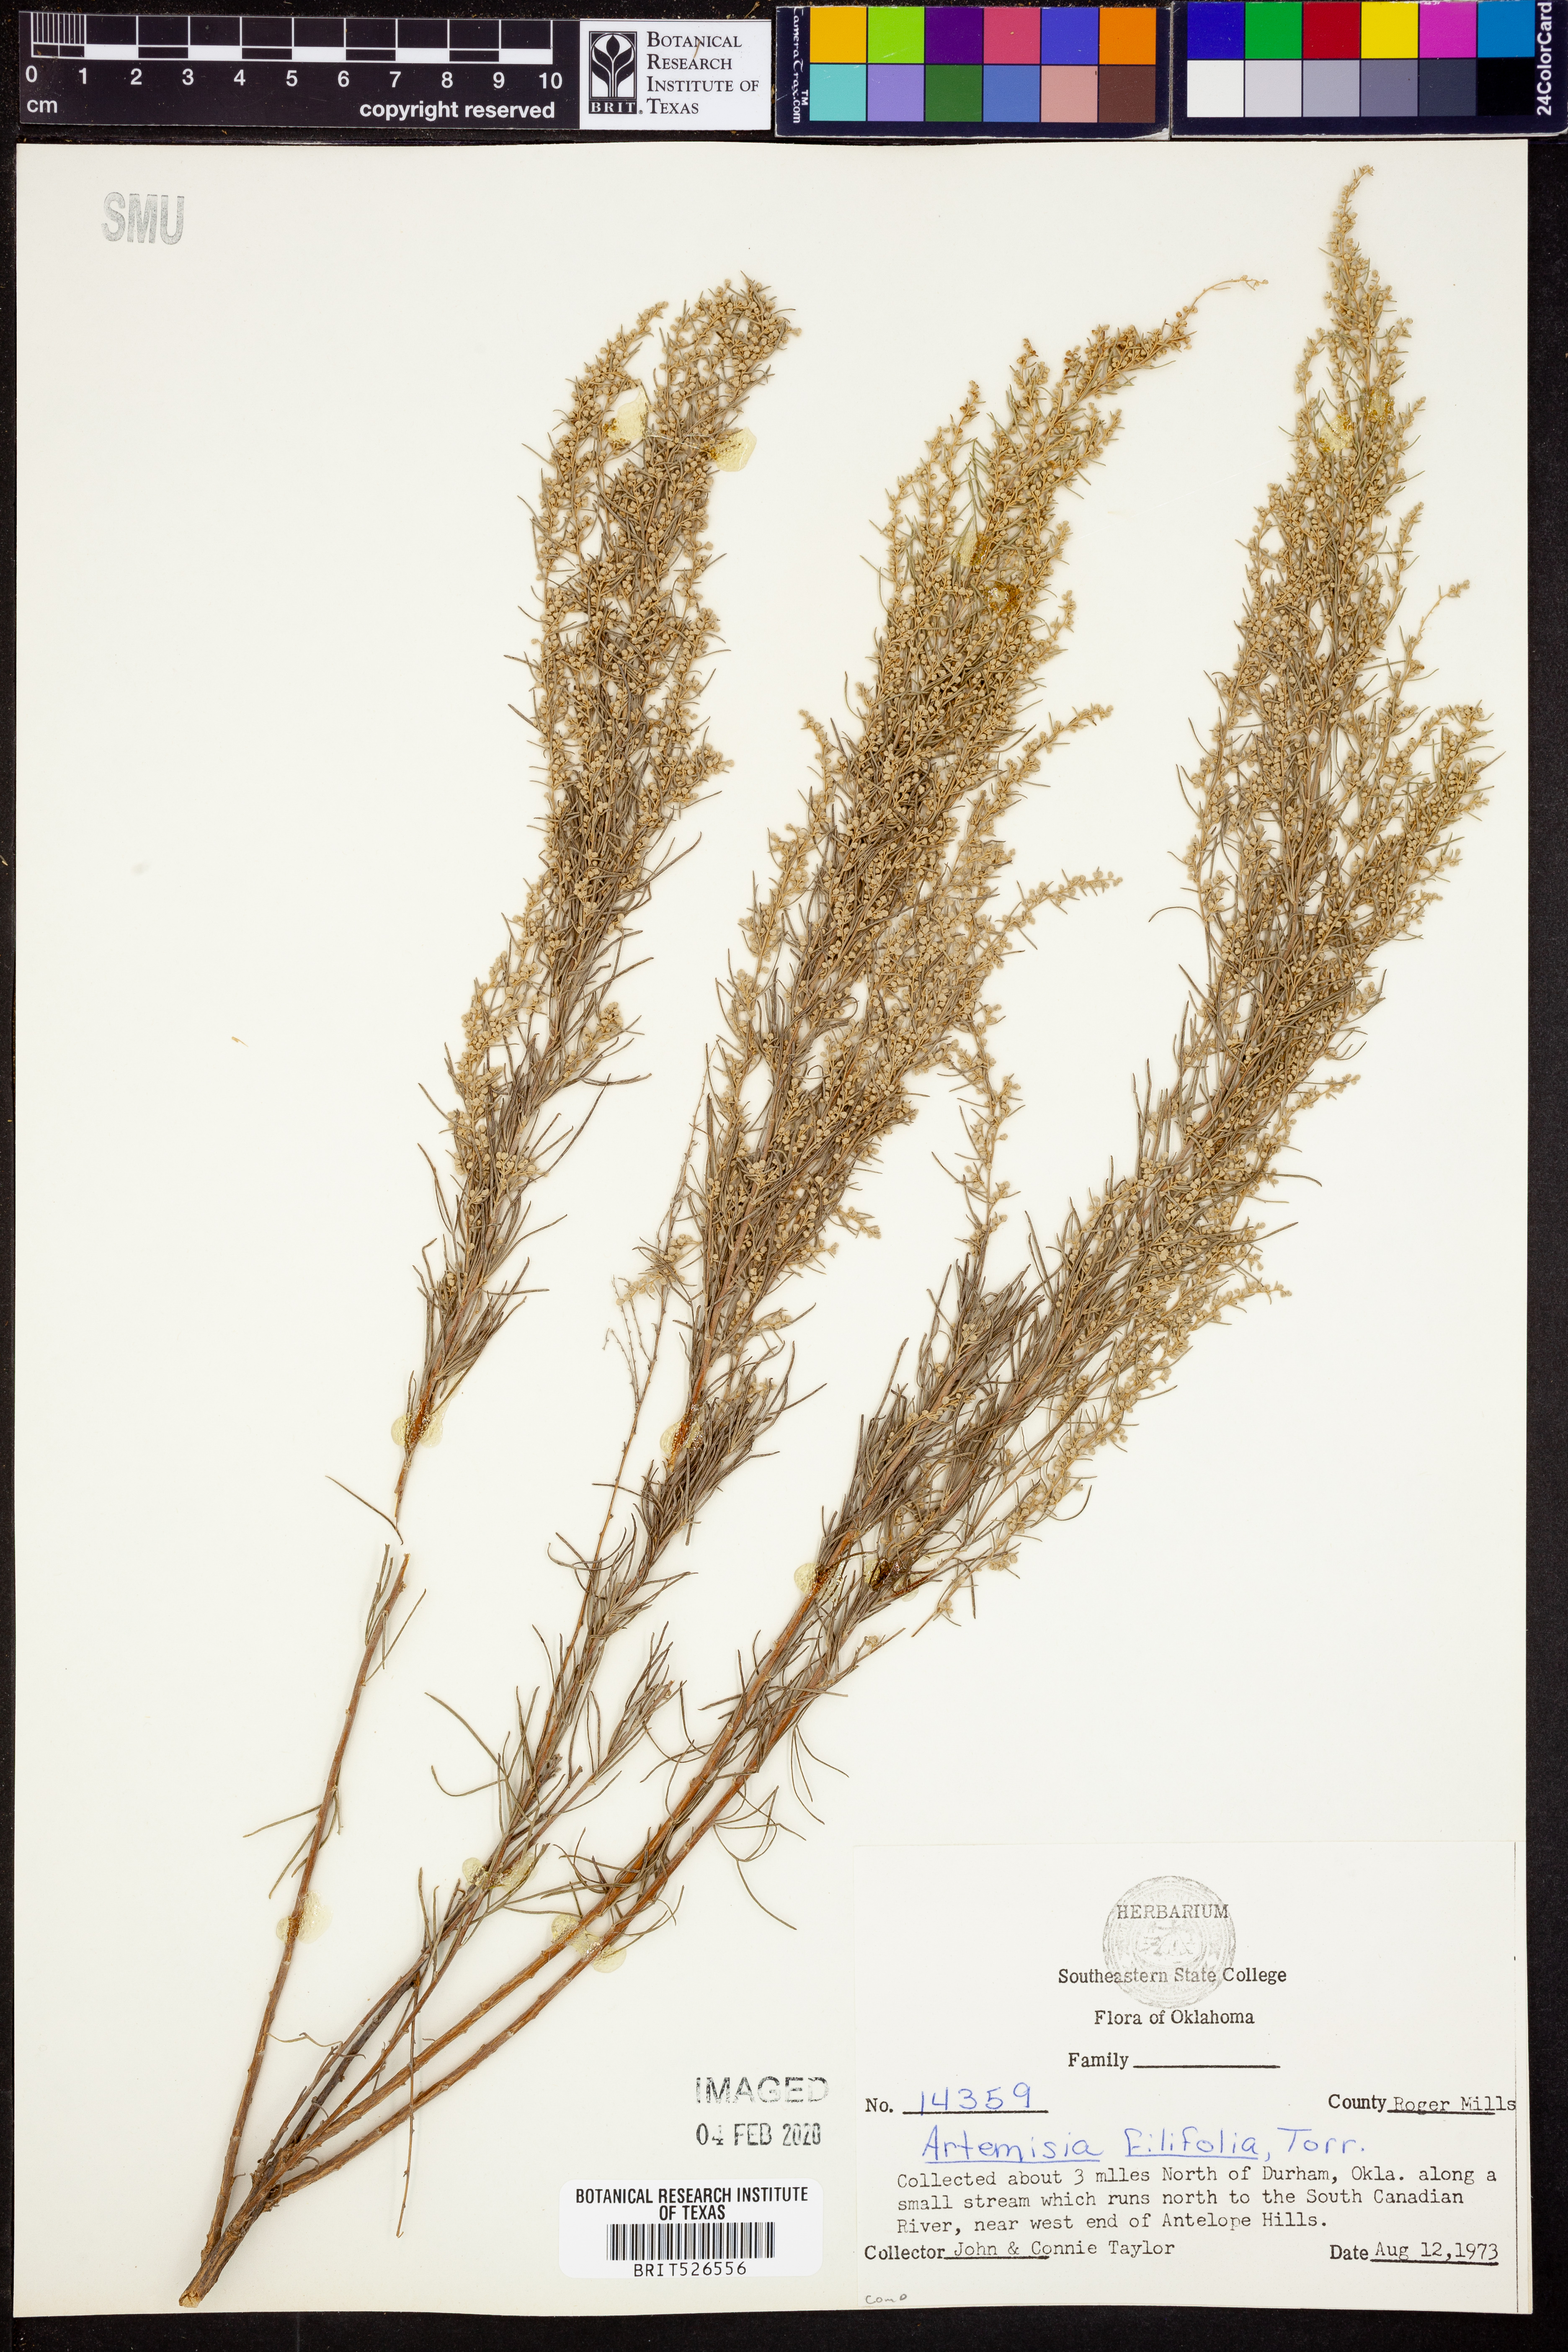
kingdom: Plantae
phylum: Tracheophyta
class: Magnoliopsida
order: Asterales
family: Asteraceae
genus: Artemisia
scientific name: Artemisia filifolia
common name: Sand-sage
